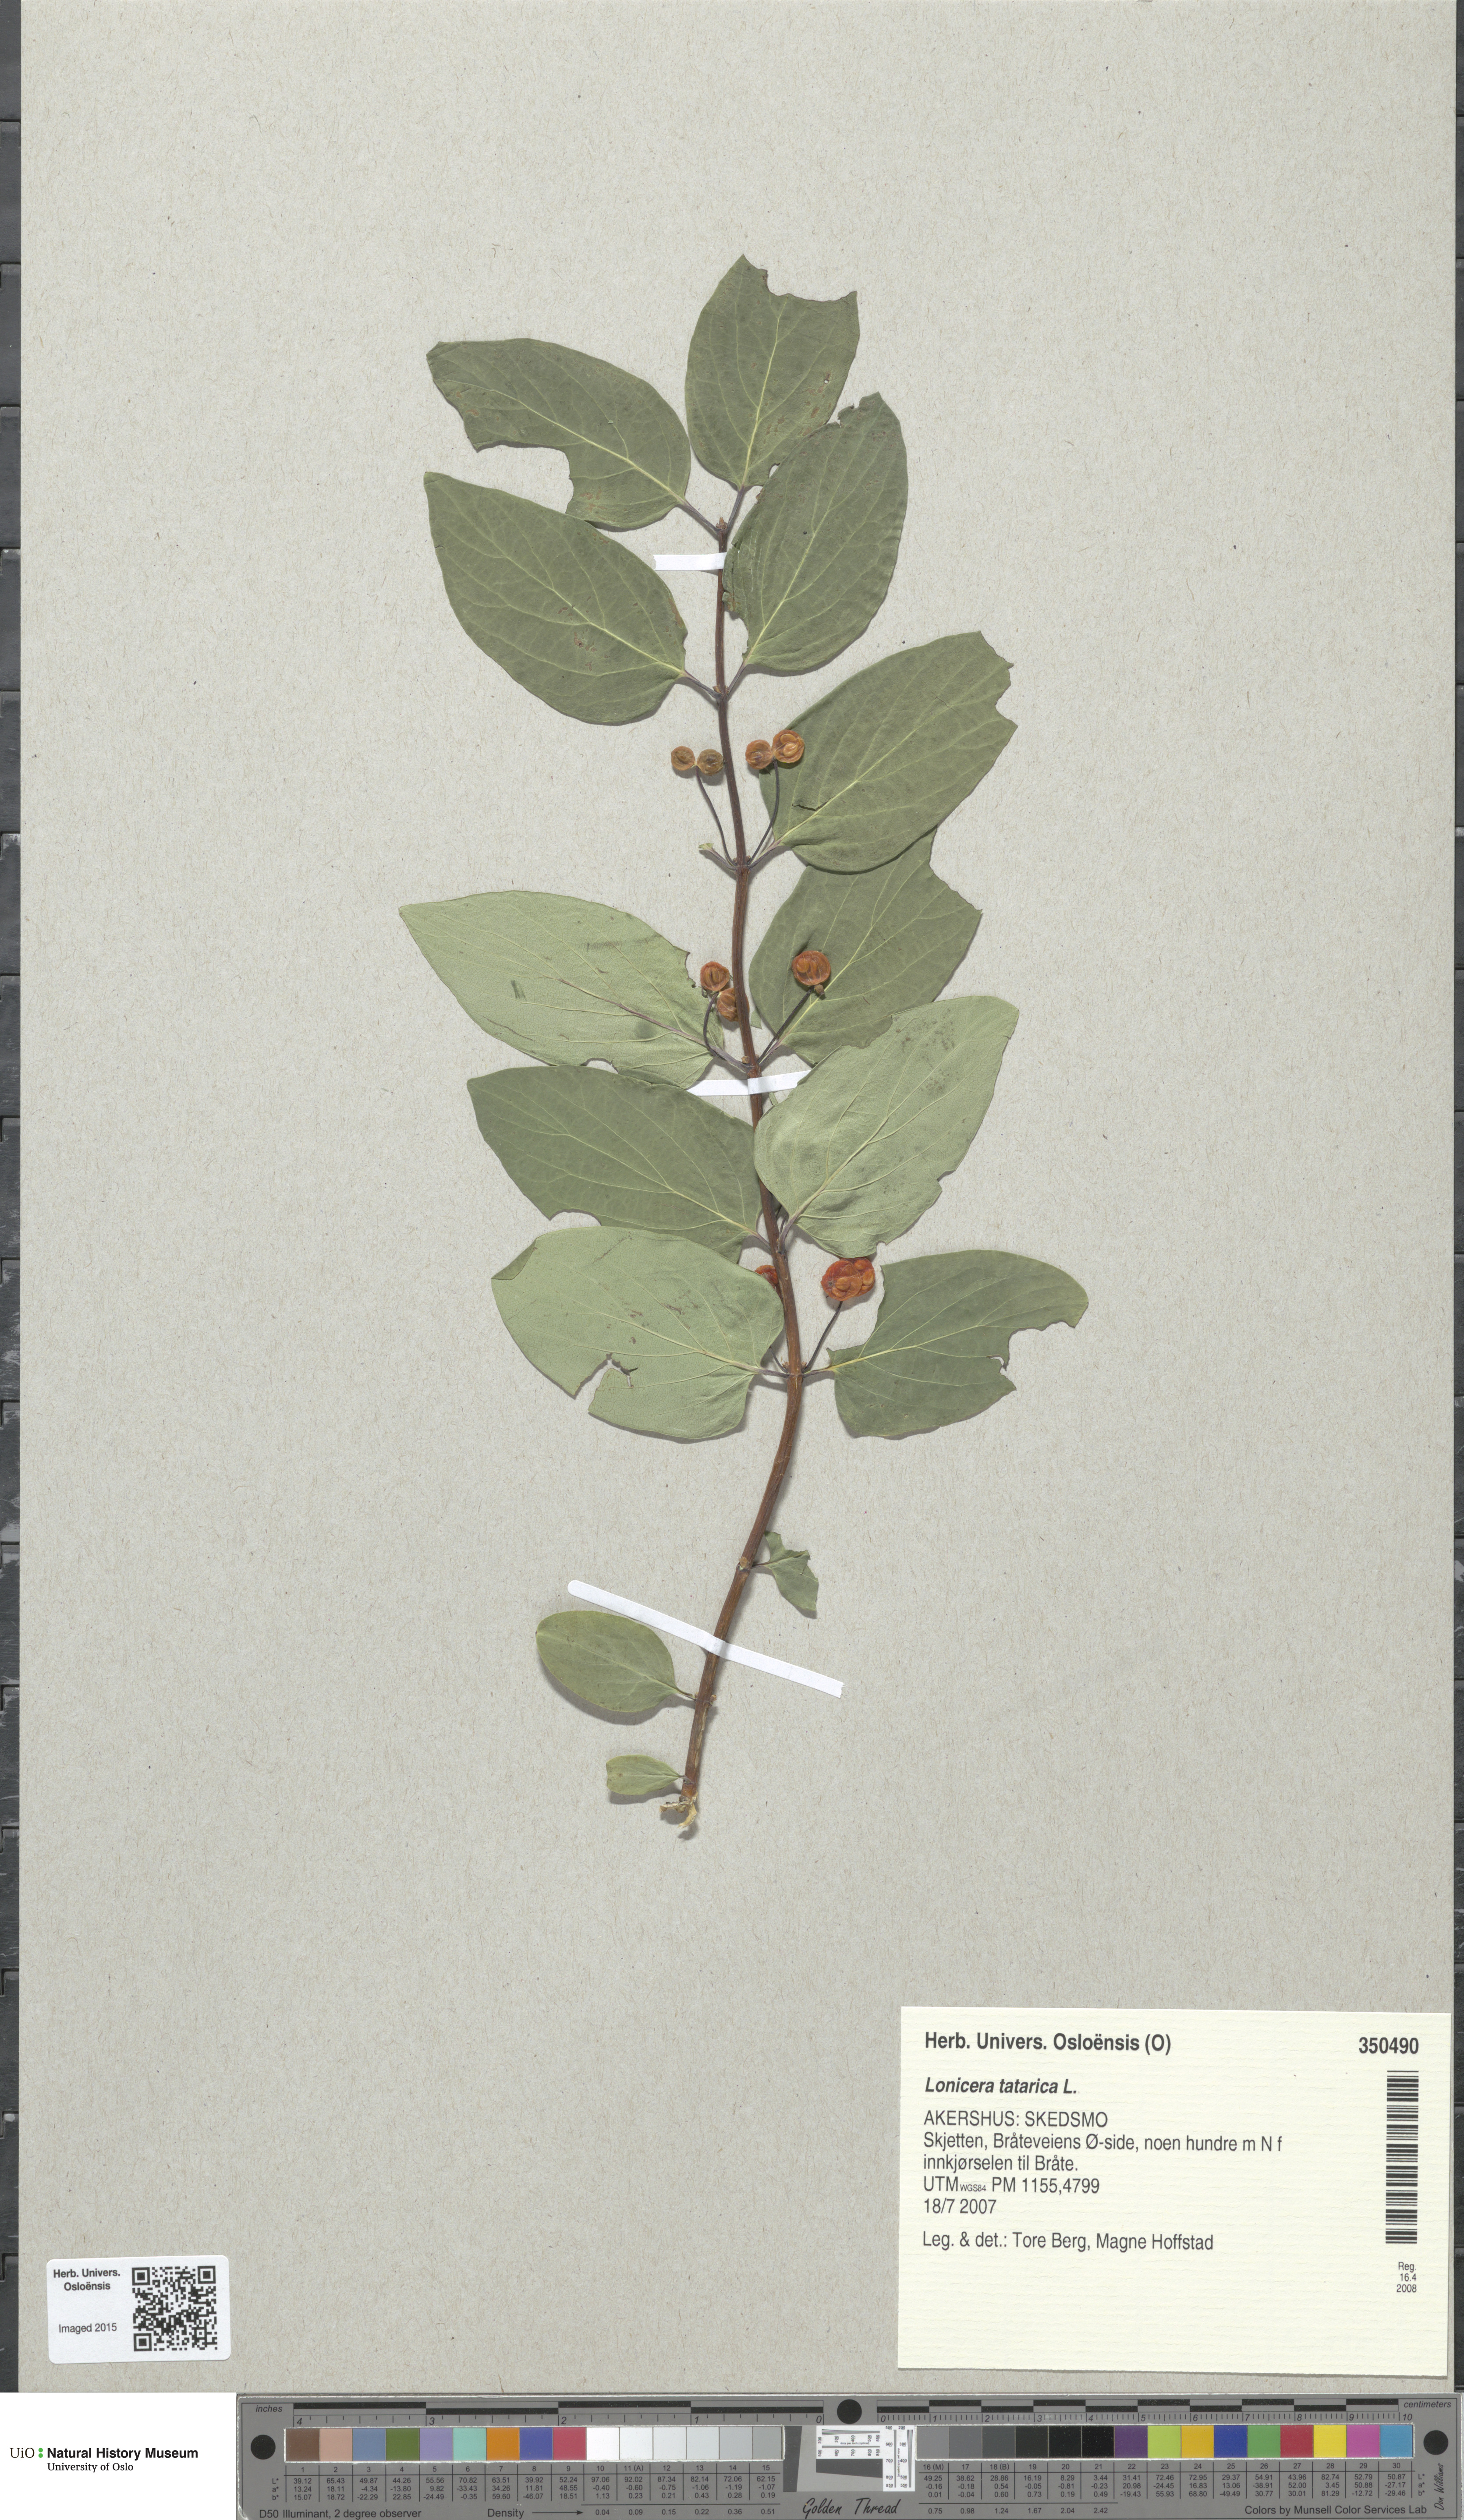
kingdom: Plantae
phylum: Tracheophyta
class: Magnoliopsida
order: Dipsacales
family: Caprifoliaceae
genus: Lonicera
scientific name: Lonicera tatarica
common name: Tatarian honeysuckle
